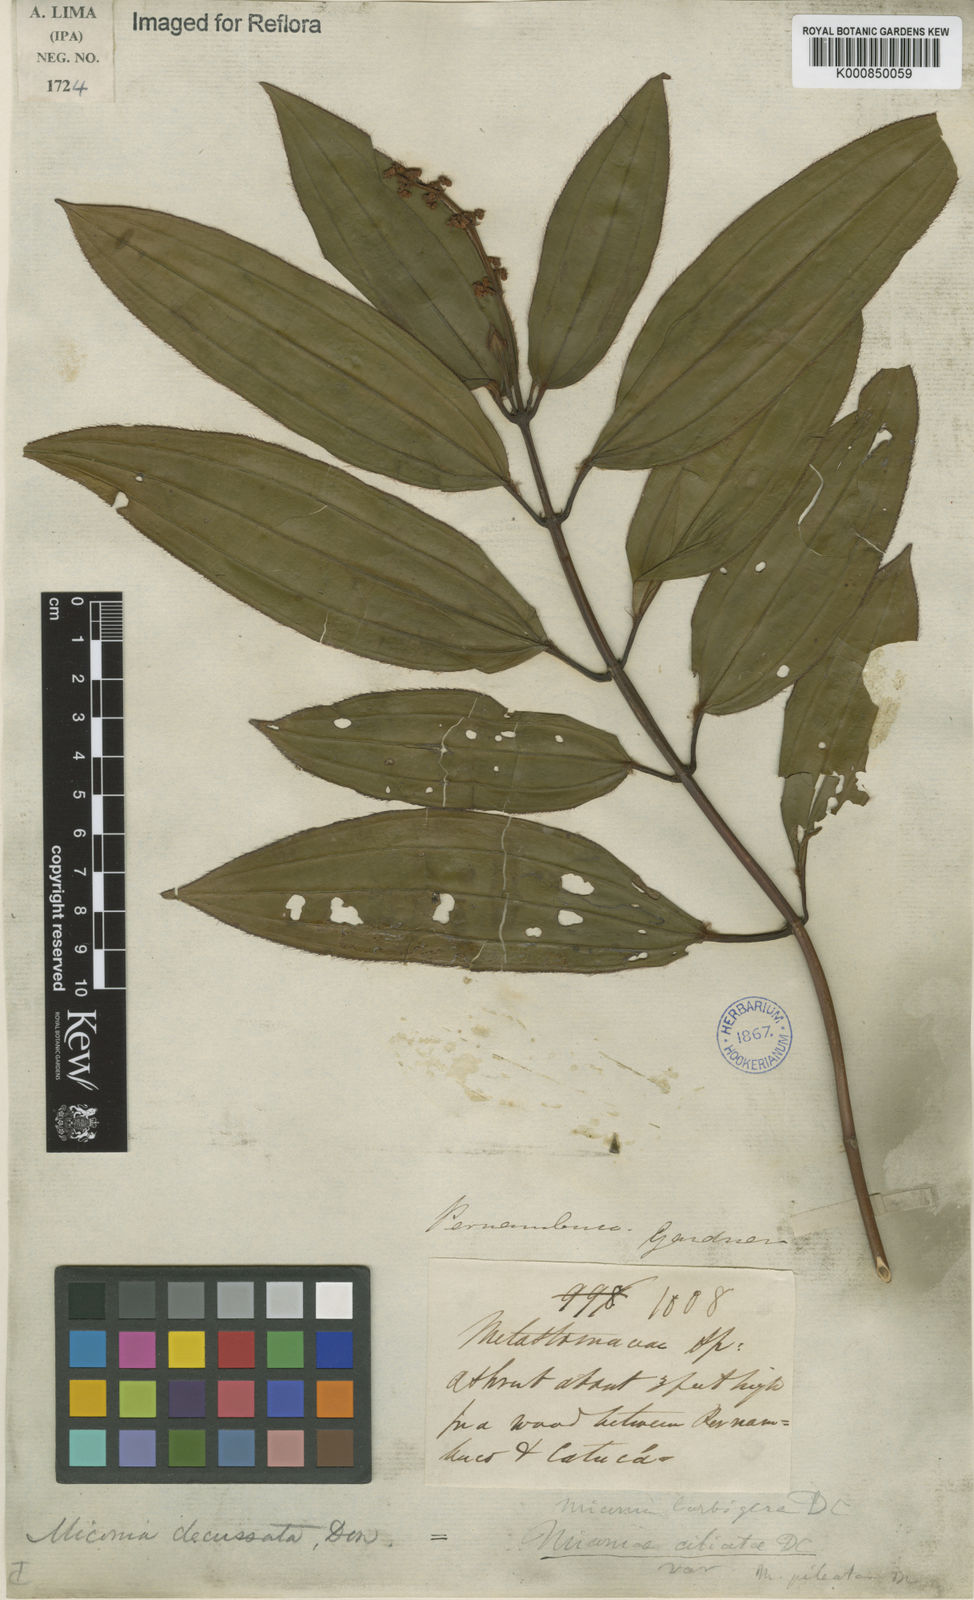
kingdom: Plantae
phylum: Tracheophyta
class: Magnoliopsida
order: Myrtales
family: Melastomataceae
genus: Miconia
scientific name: Miconia ciliata
